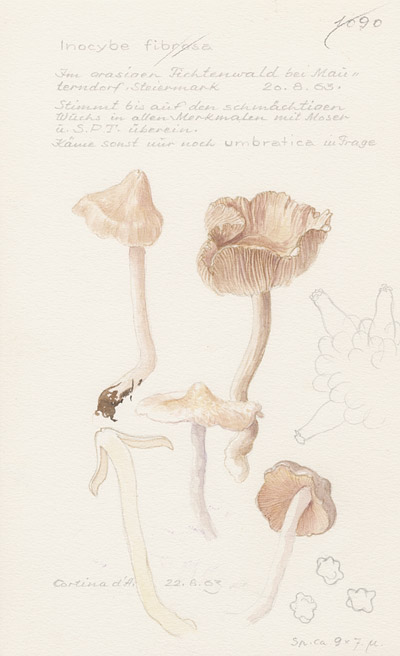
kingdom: Fungi
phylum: Basidiomycota
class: Agaricomycetes
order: Agaricales
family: Inocybaceae
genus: Inocybe
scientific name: Inocybe fibrosa
